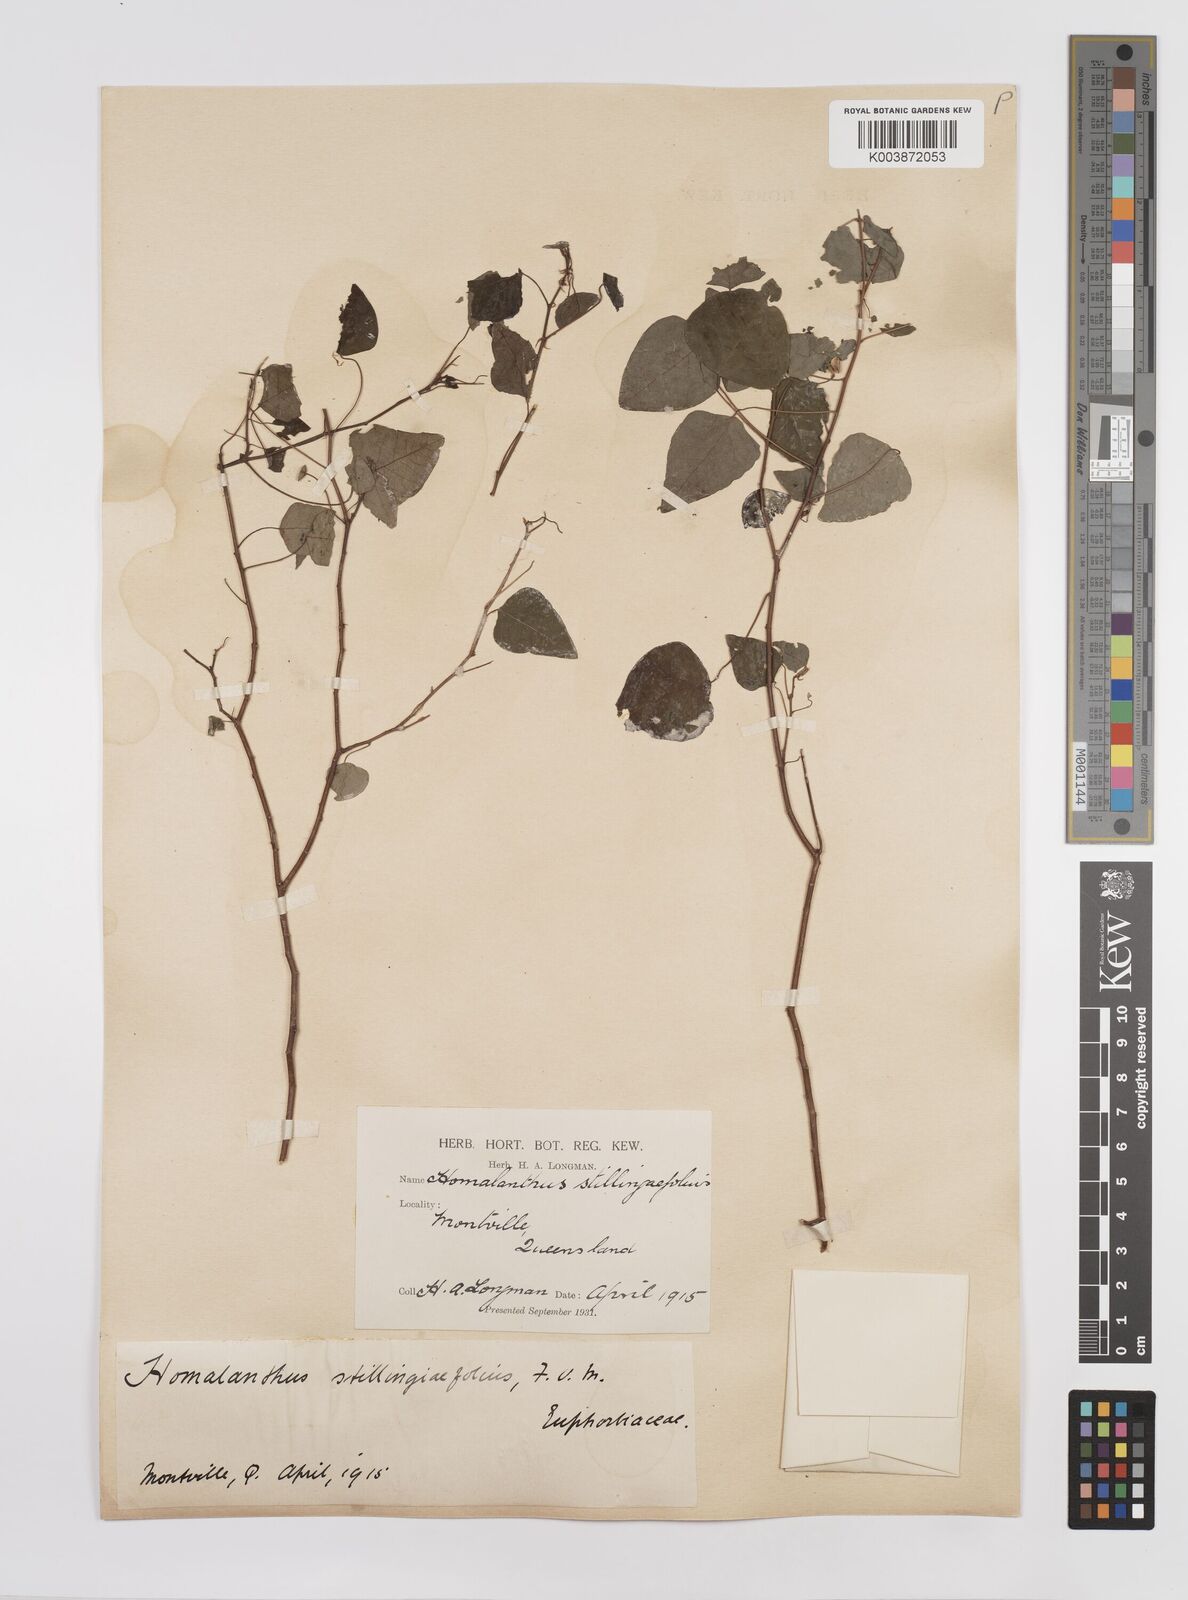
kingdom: Plantae
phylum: Tracheophyta
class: Magnoliopsida
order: Malpighiales
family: Euphorbiaceae
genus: Homalanthus
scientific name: Homalanthus stillingifolius
